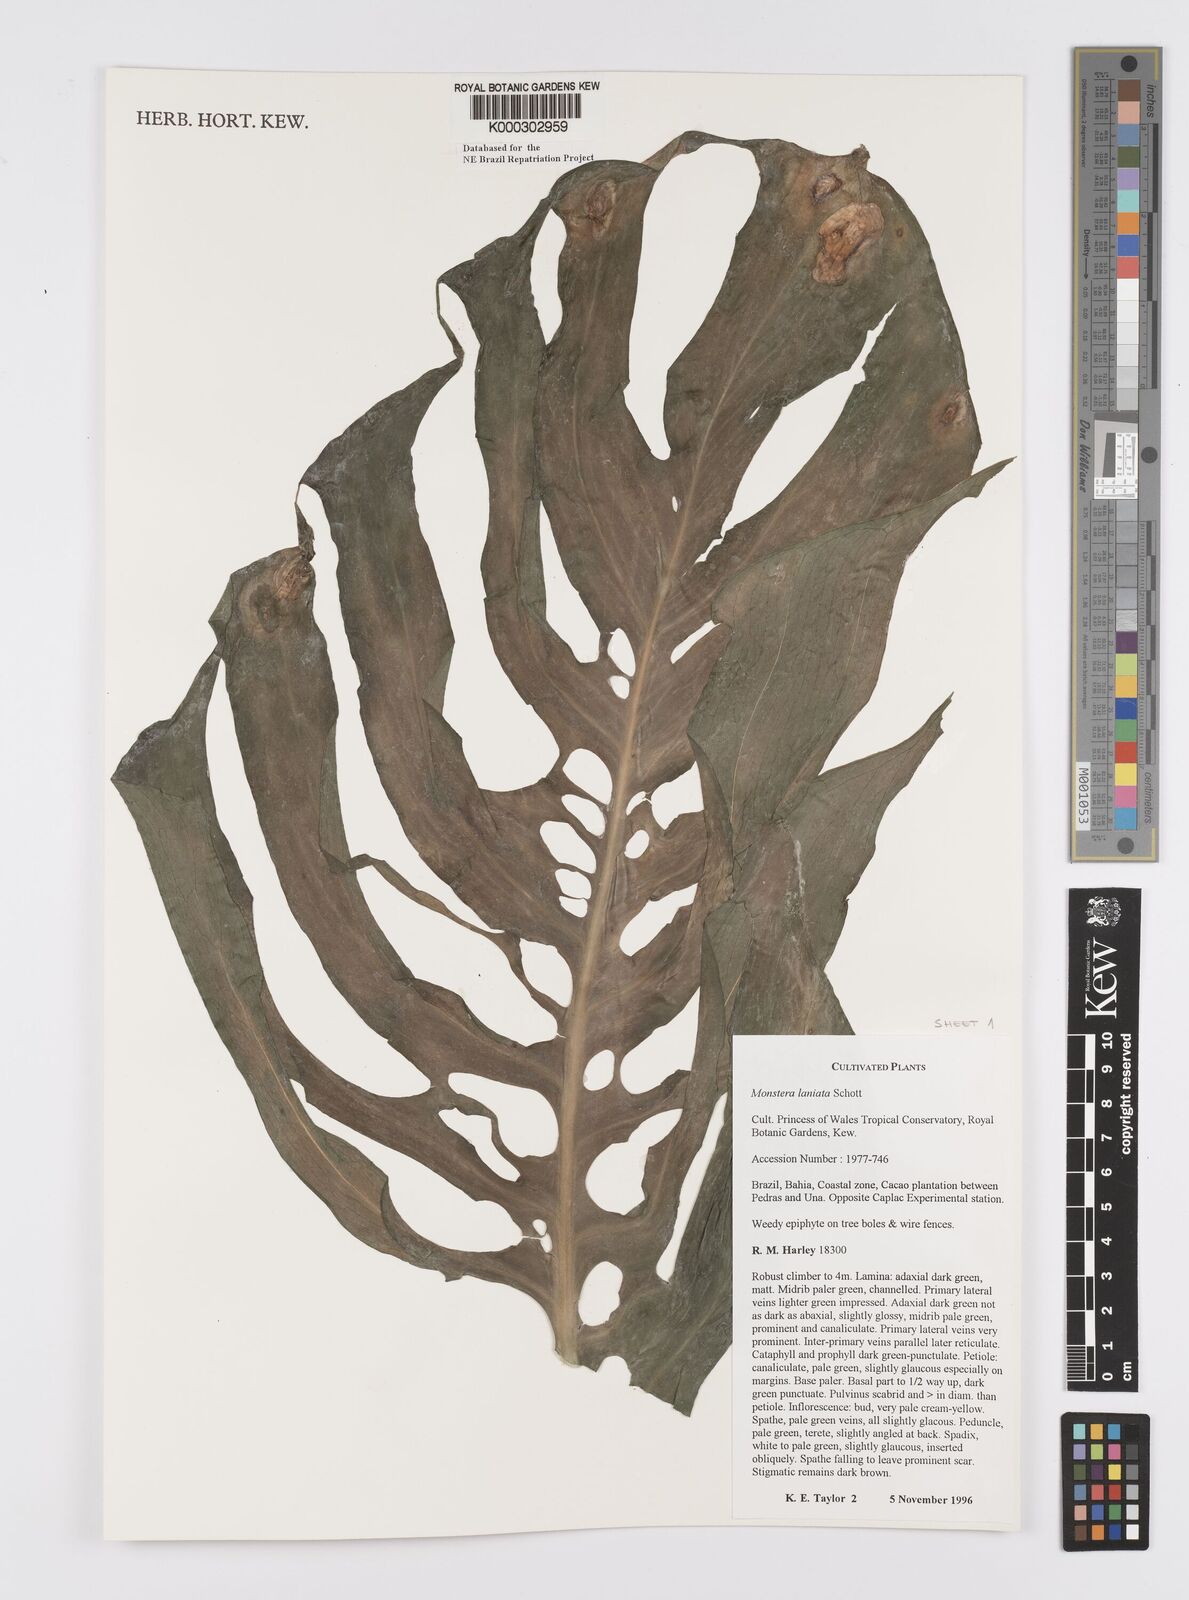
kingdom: Plantae
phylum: Tracheophyta
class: Liliopsida
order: Alismatales
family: Araceae
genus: Monstera
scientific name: Monstera adansonii
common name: Tarovine
